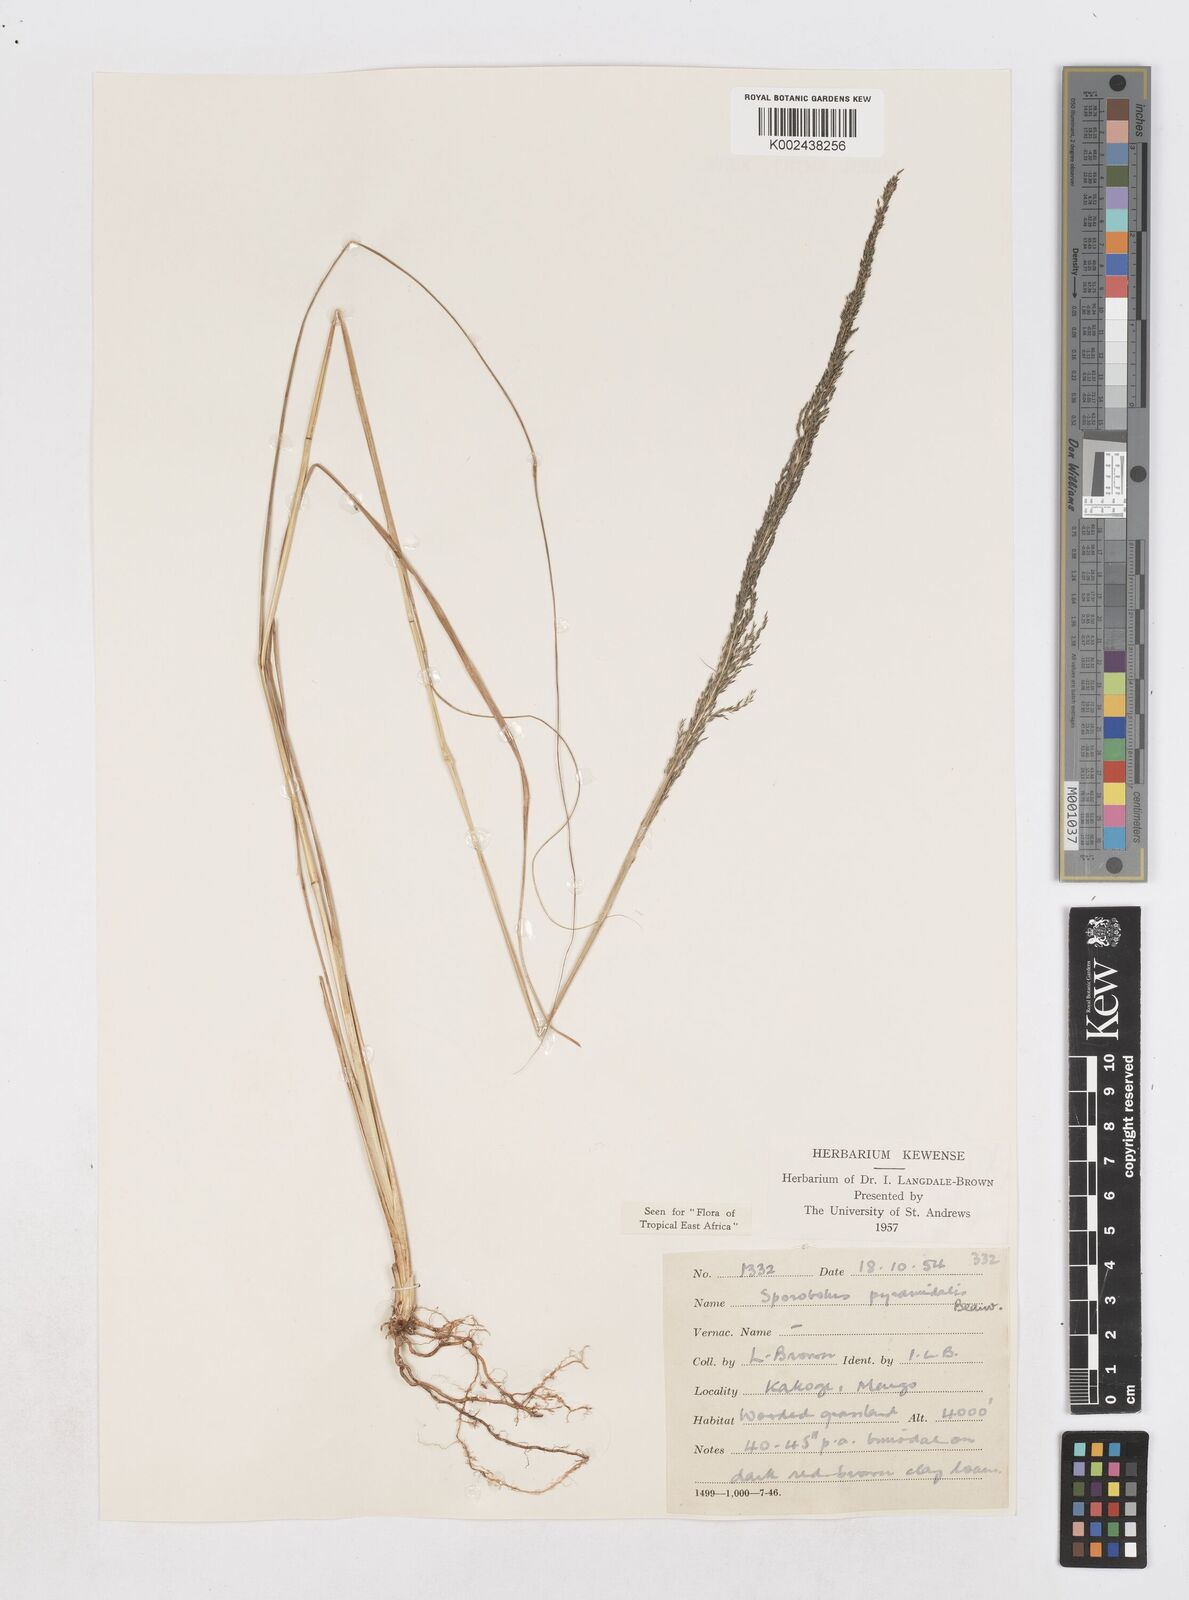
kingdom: Plantae
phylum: Tracheophyta
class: Liliopsida
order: Poales
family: Poaceae
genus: Sporobolus
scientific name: Sporobolus pyramidalis
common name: West indian dropseed
